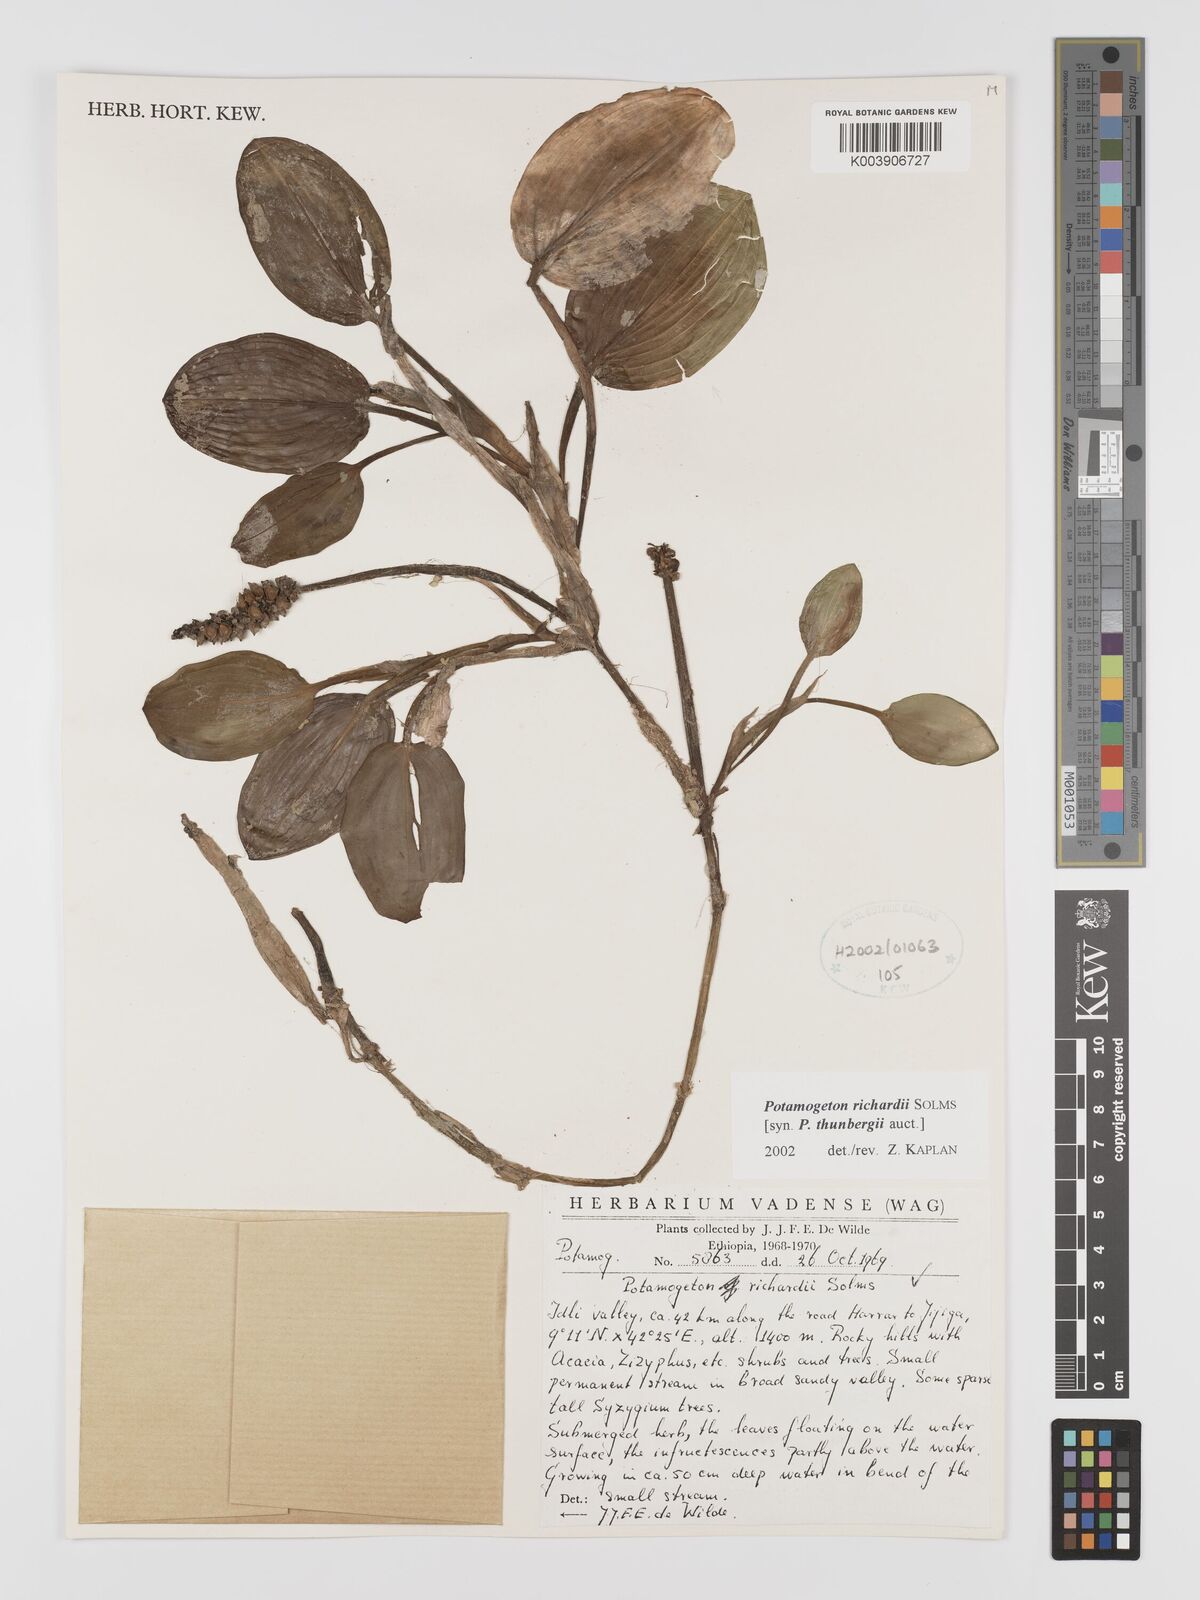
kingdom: Plantae
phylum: Tracheophyta
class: Liliopsida
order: Alismatales
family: Potamogetonaceae
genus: Potamogeton
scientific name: Potamogeton richardii
